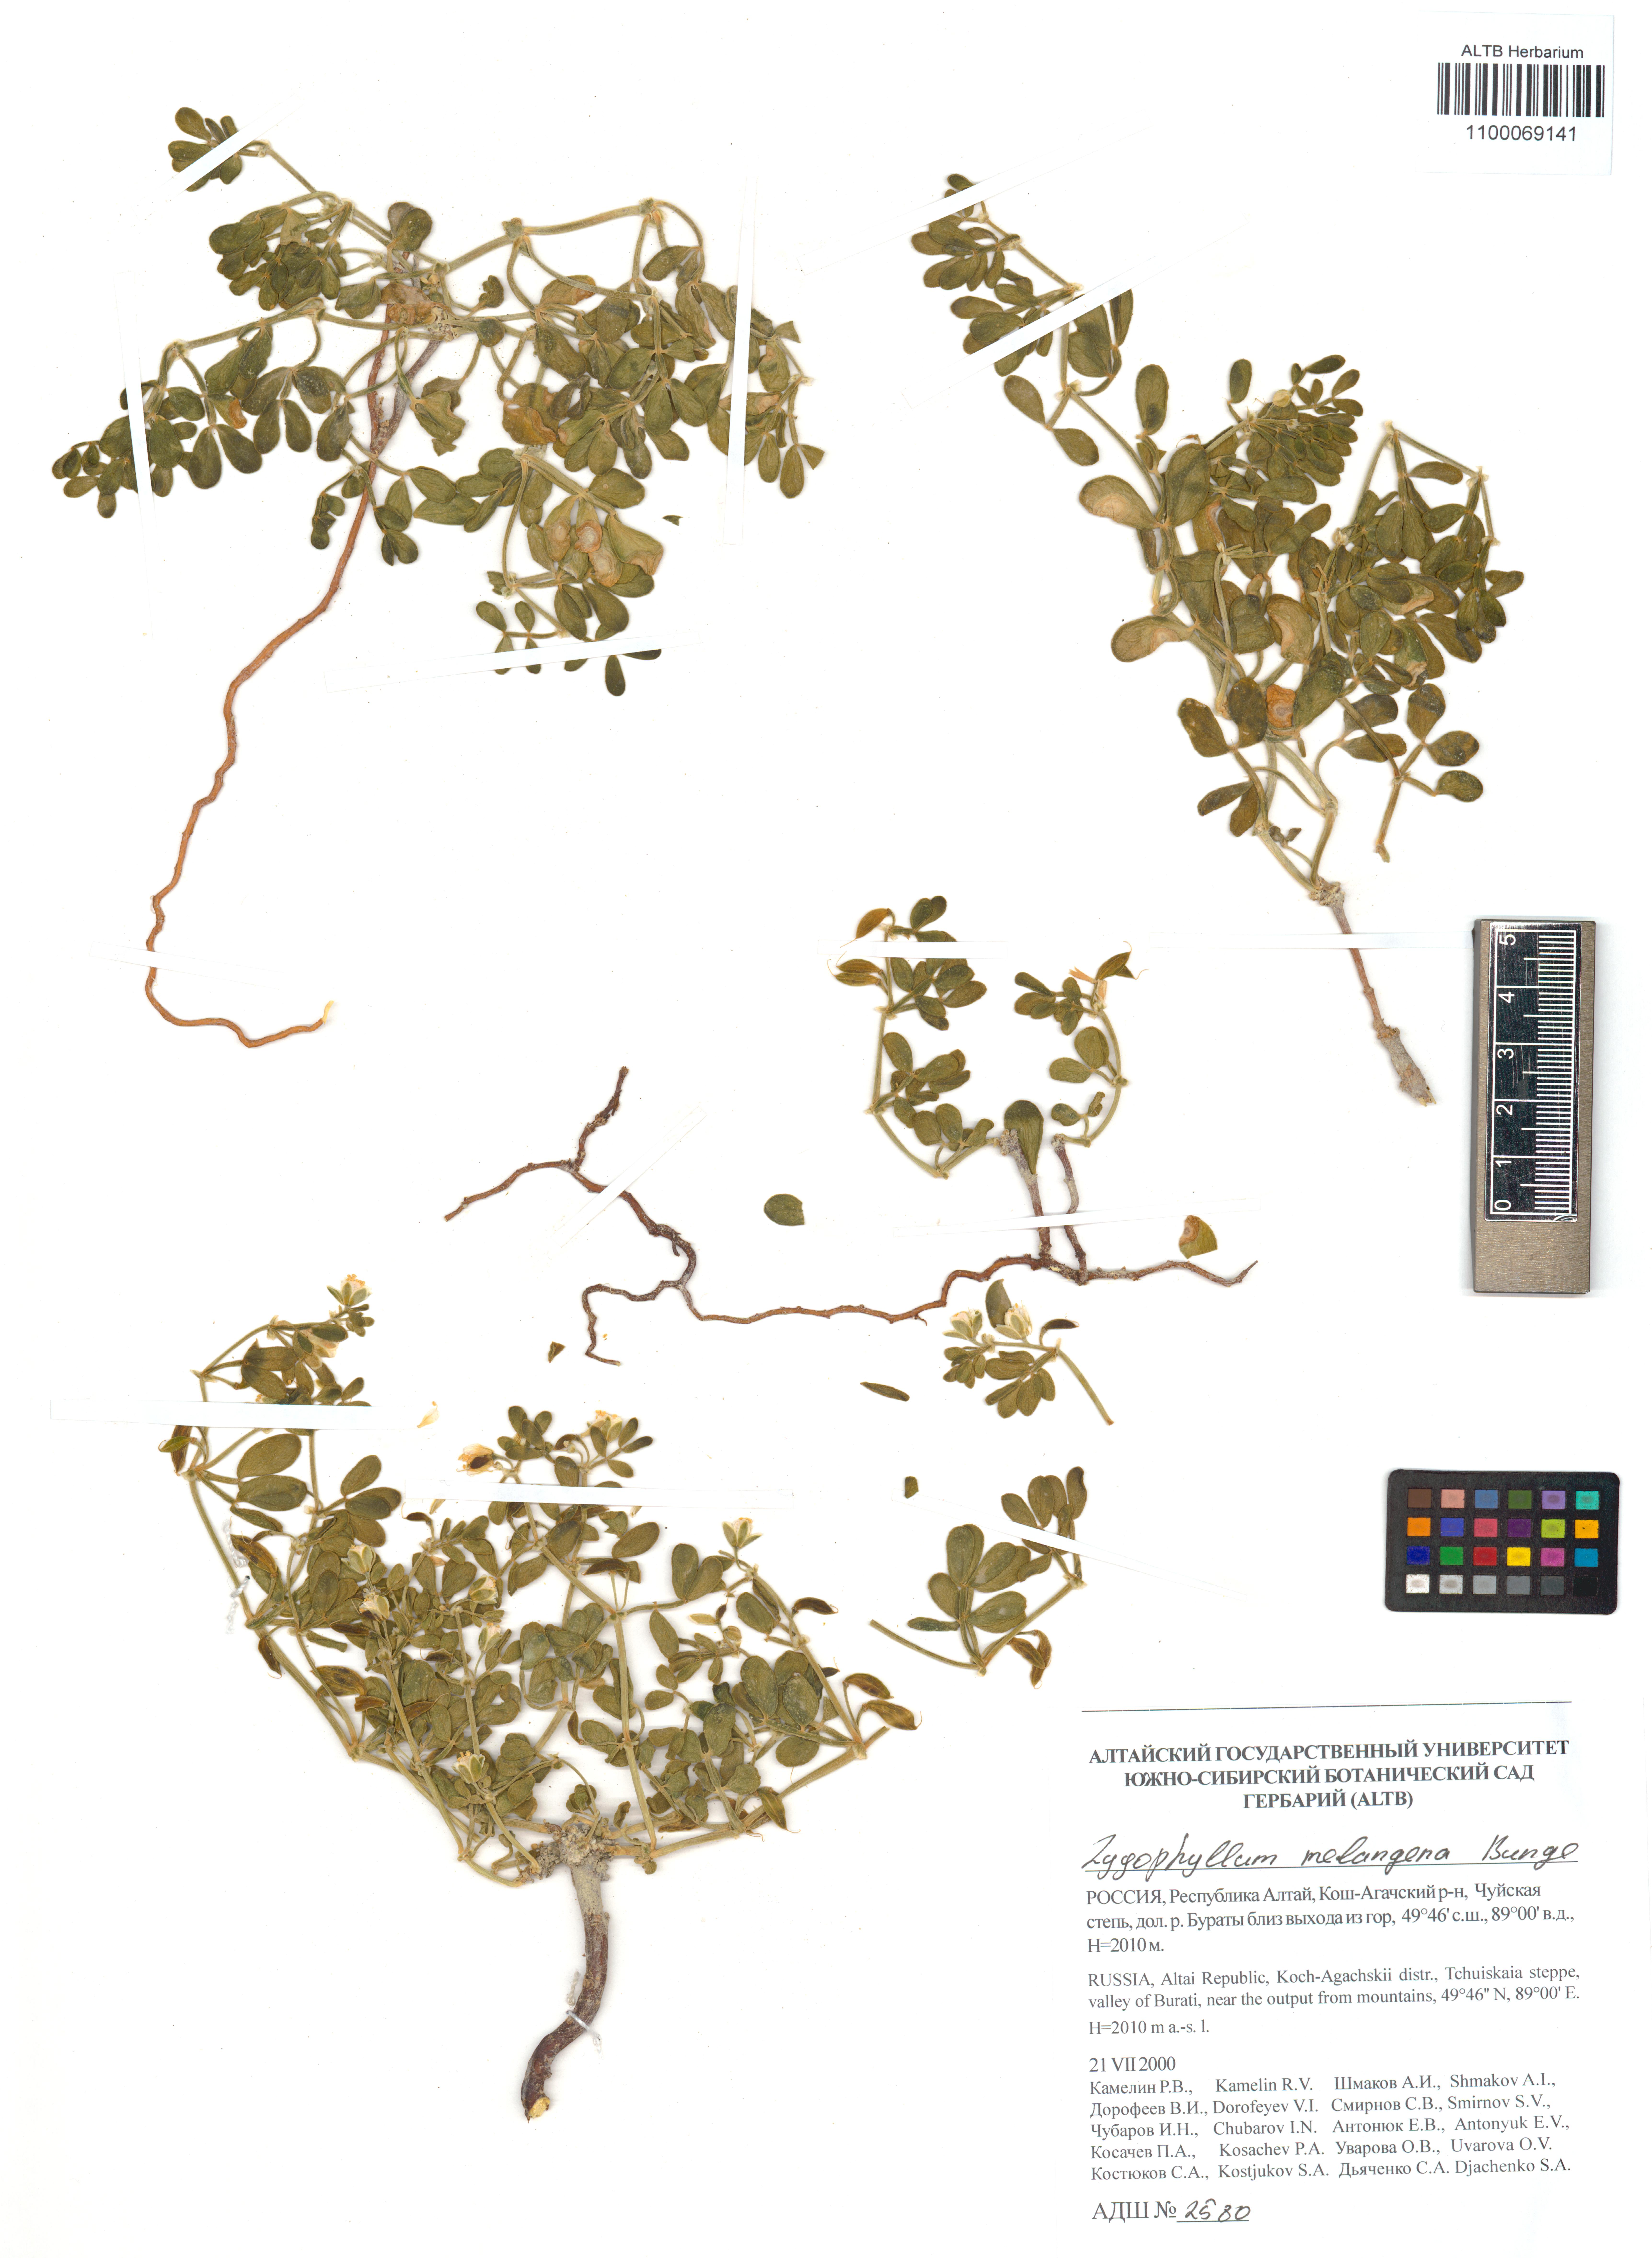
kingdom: Plantae
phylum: Tracheophyta
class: Magnoliopsida
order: Zygophyllales
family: Zygophyllaceae
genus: Zygophyllum
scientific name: Zygophyllum melongena
